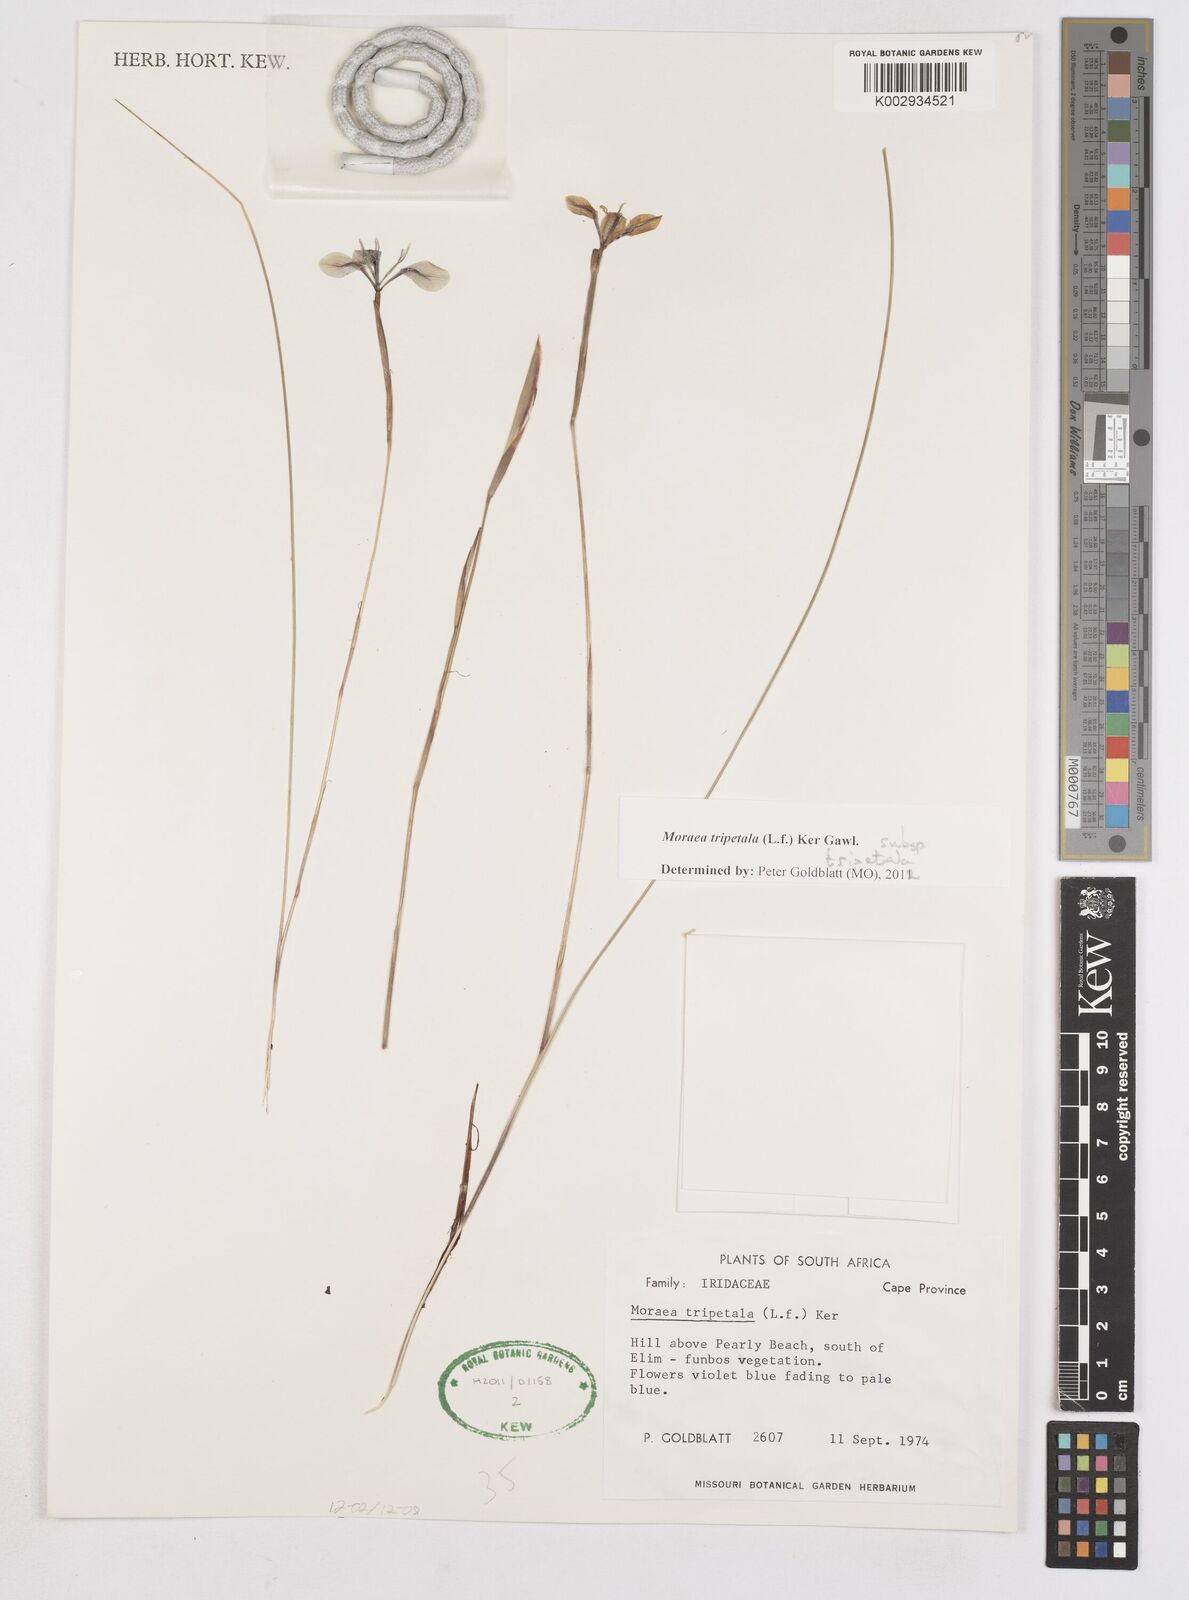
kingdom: Plantae
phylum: Tracheophyta
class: Liliopsida
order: Asparagales
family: Iridaceae
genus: Moraea
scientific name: Moraea tripetala
